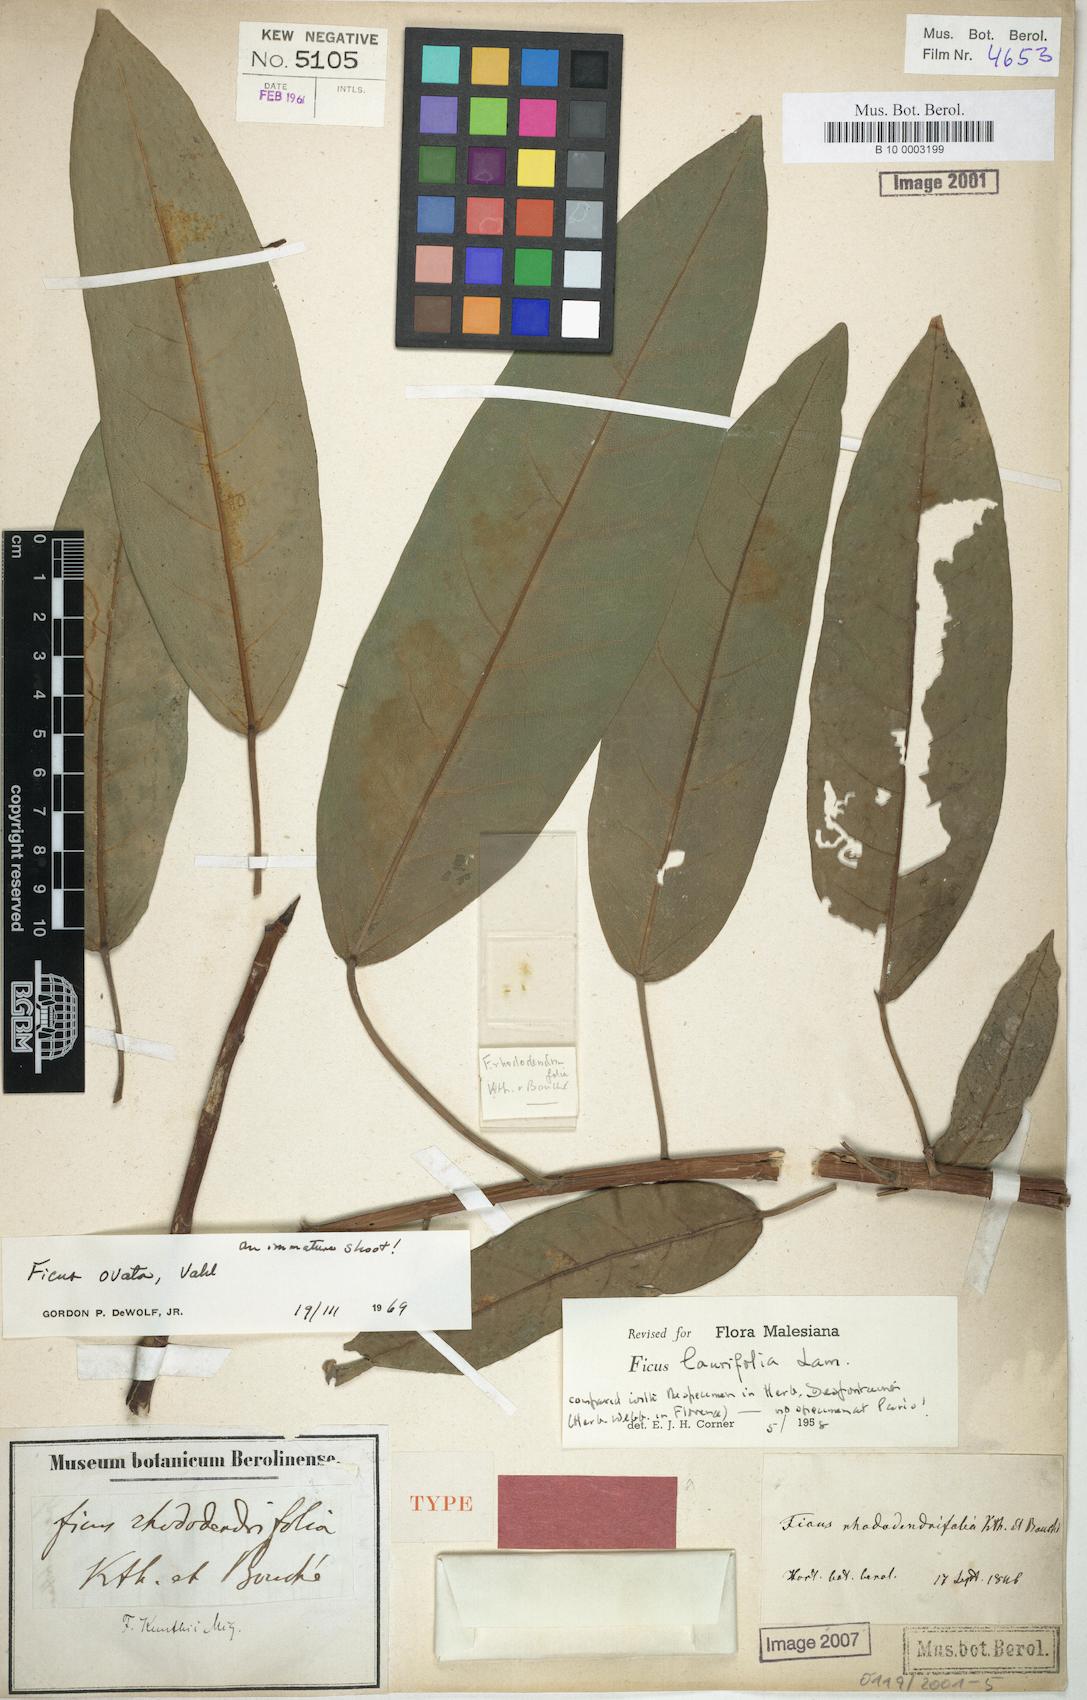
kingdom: Plantae
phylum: Tracheophyta
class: Magnoliopsida
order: Rosales
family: Moraceae
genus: Ficus
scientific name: Ficus laurifolia
